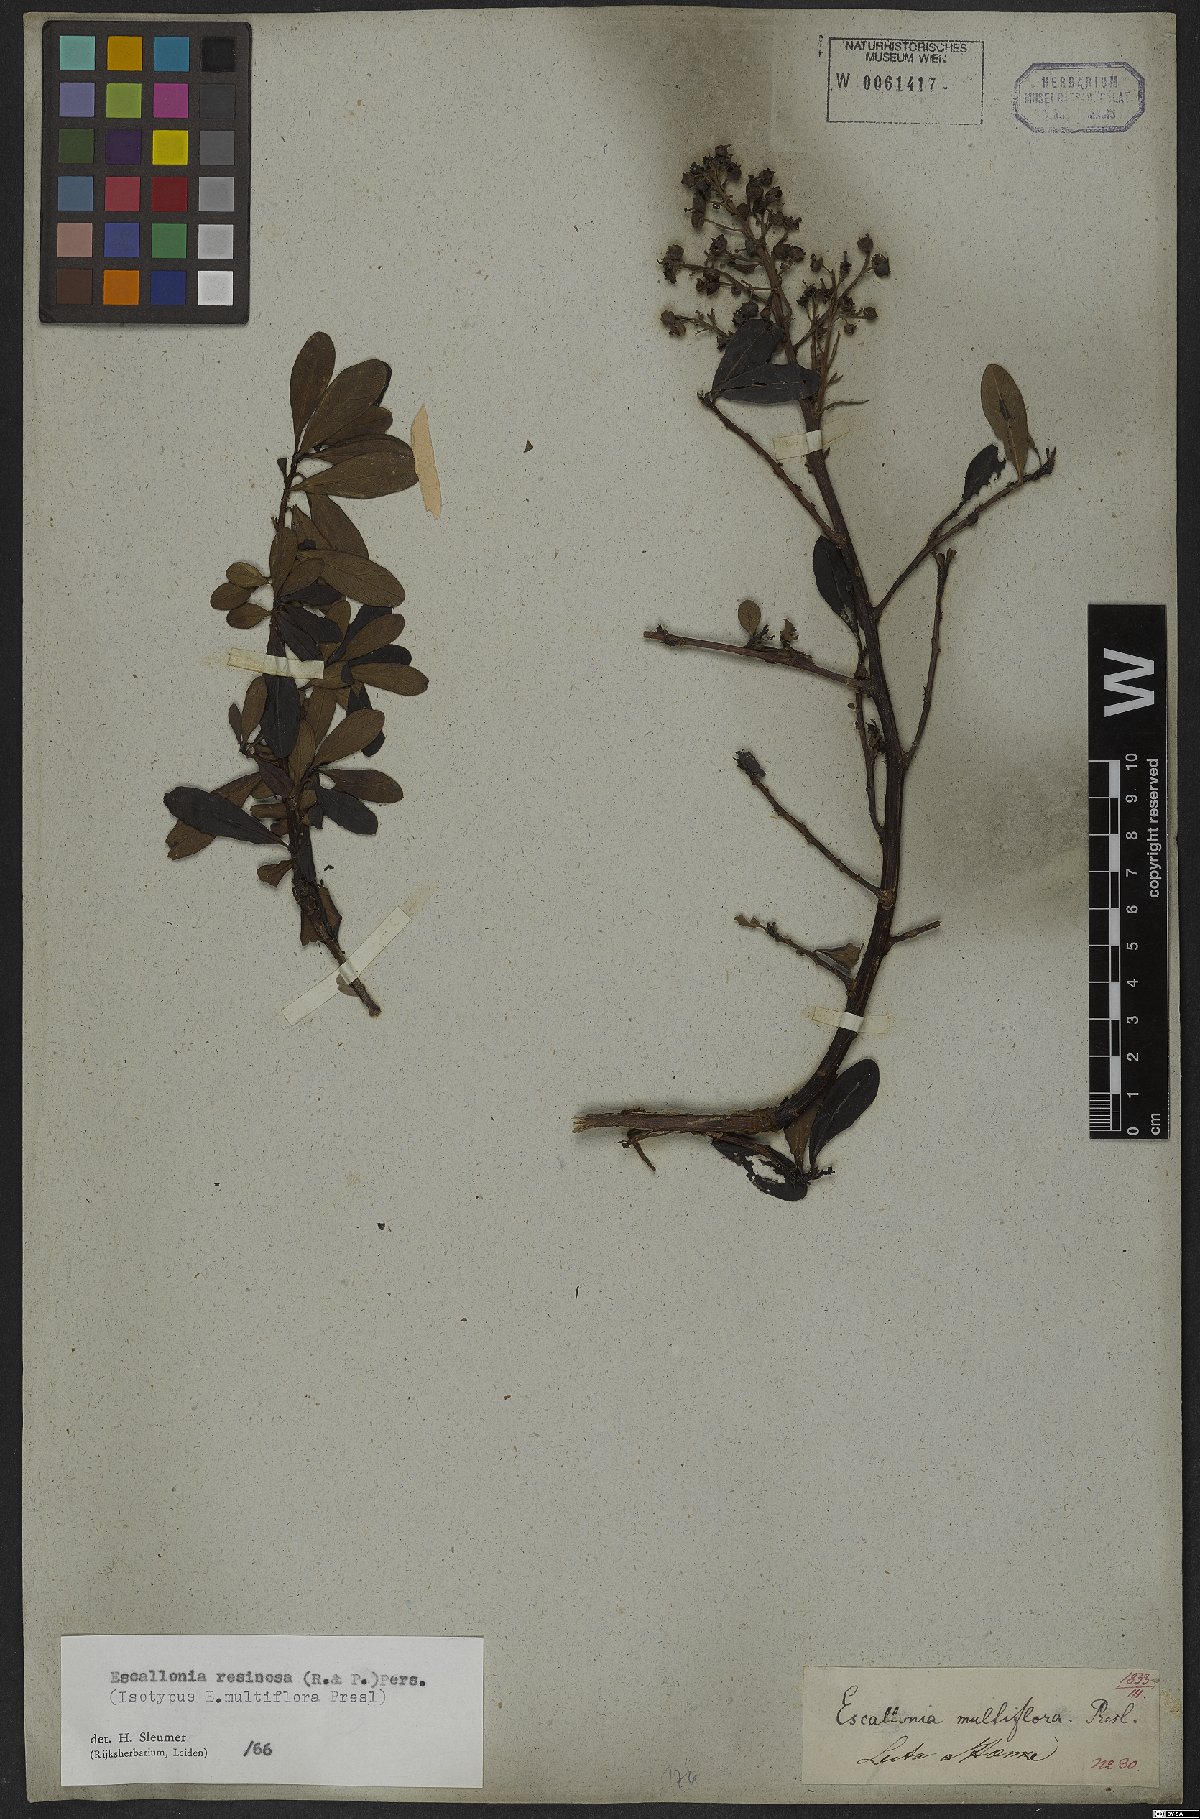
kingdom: Plantae
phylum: Tracheophyta
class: Magnoliopsida
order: Escalloniales
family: Escalloniaceae
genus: Escallonia
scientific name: Escallonia resinosa
